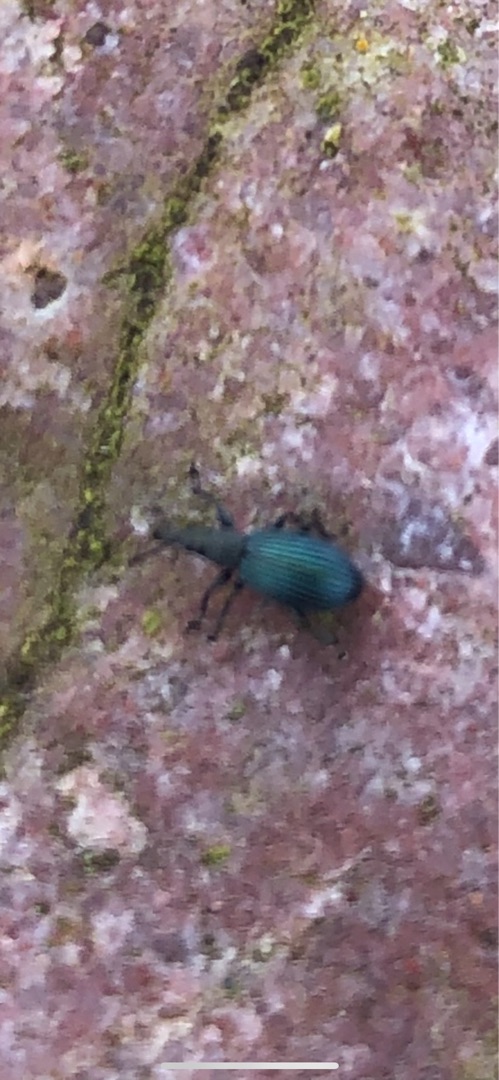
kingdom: Animalia
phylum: Arthropoda
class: Insecta
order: Coleoptera
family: Brentidae
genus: Perapion
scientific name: Perapion violaceum
